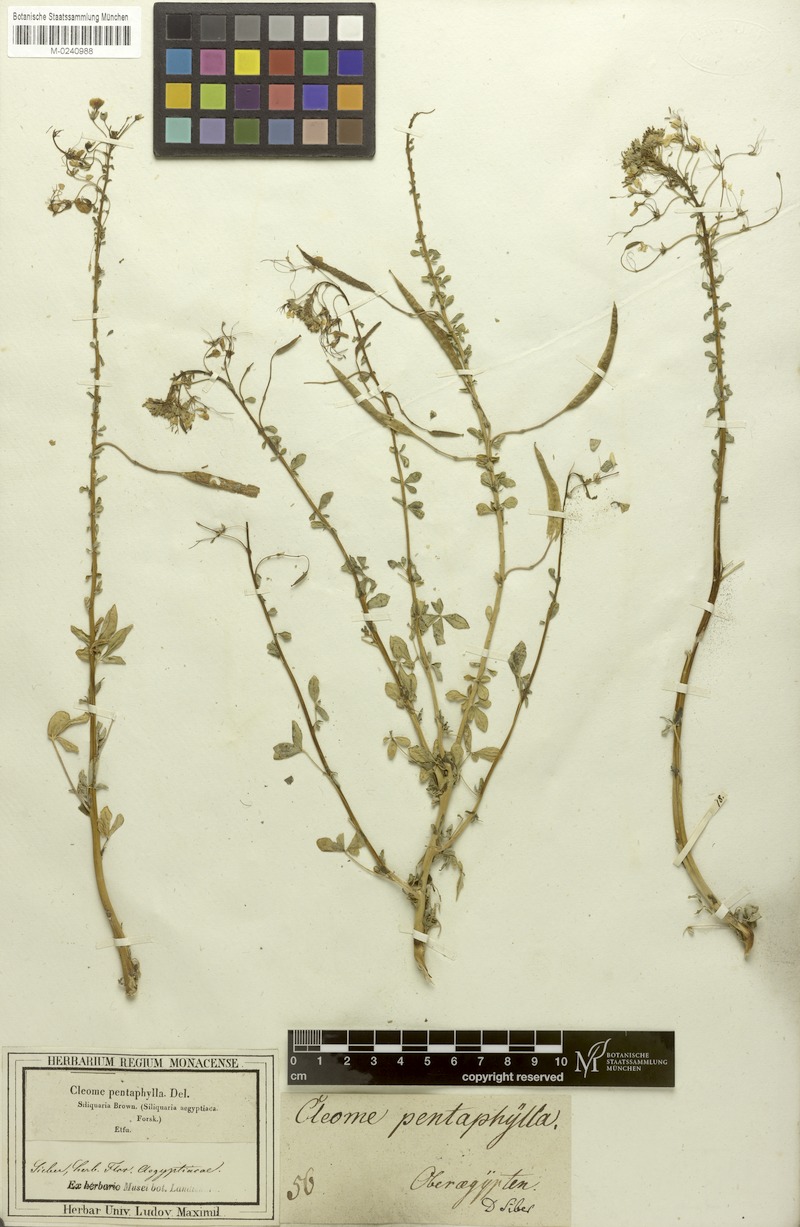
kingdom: Plantae
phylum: Tracheophyta
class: Magnoliopsida
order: Brassicales
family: Cleomaceae
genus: Gynandropsis
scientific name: Gynandropsis gynandra
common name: Spiderwisp
